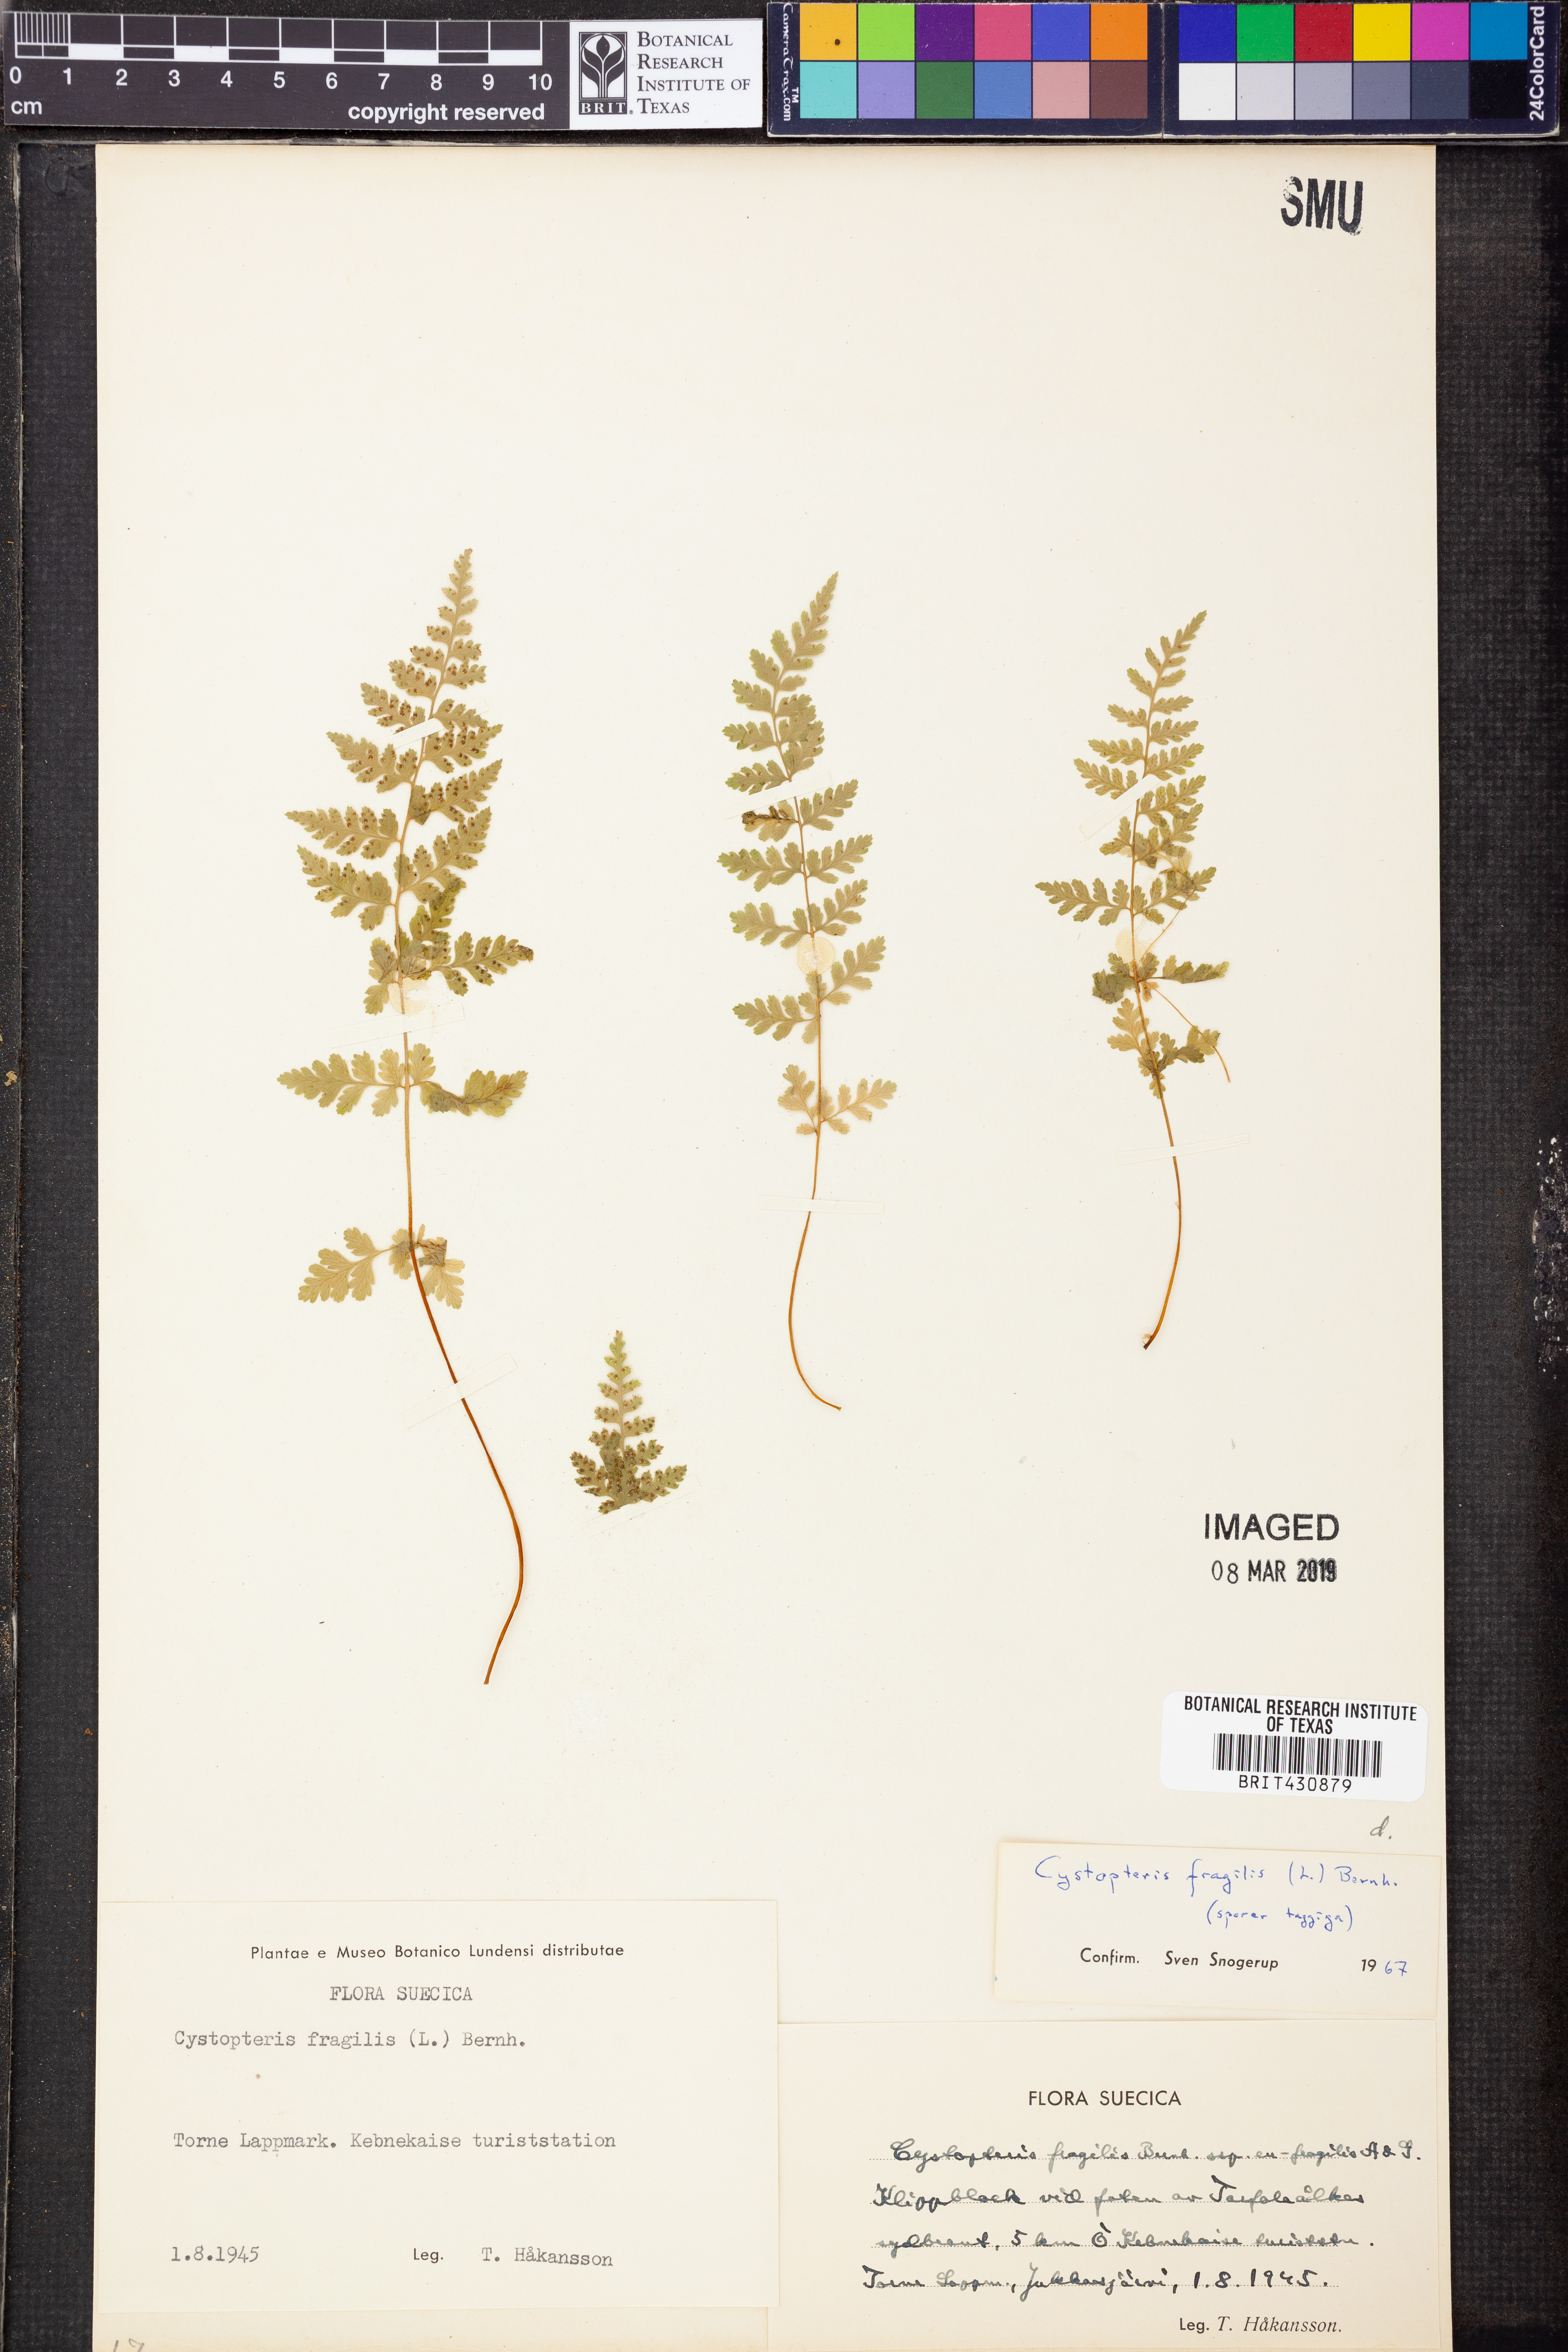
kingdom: Plantae
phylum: Tracheophyta
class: Polypodiopsida
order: Polypodiales
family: Cystopteridaceae
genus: Cystopteris
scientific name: Cystopteris fragilis
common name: Brittle bladder fern
